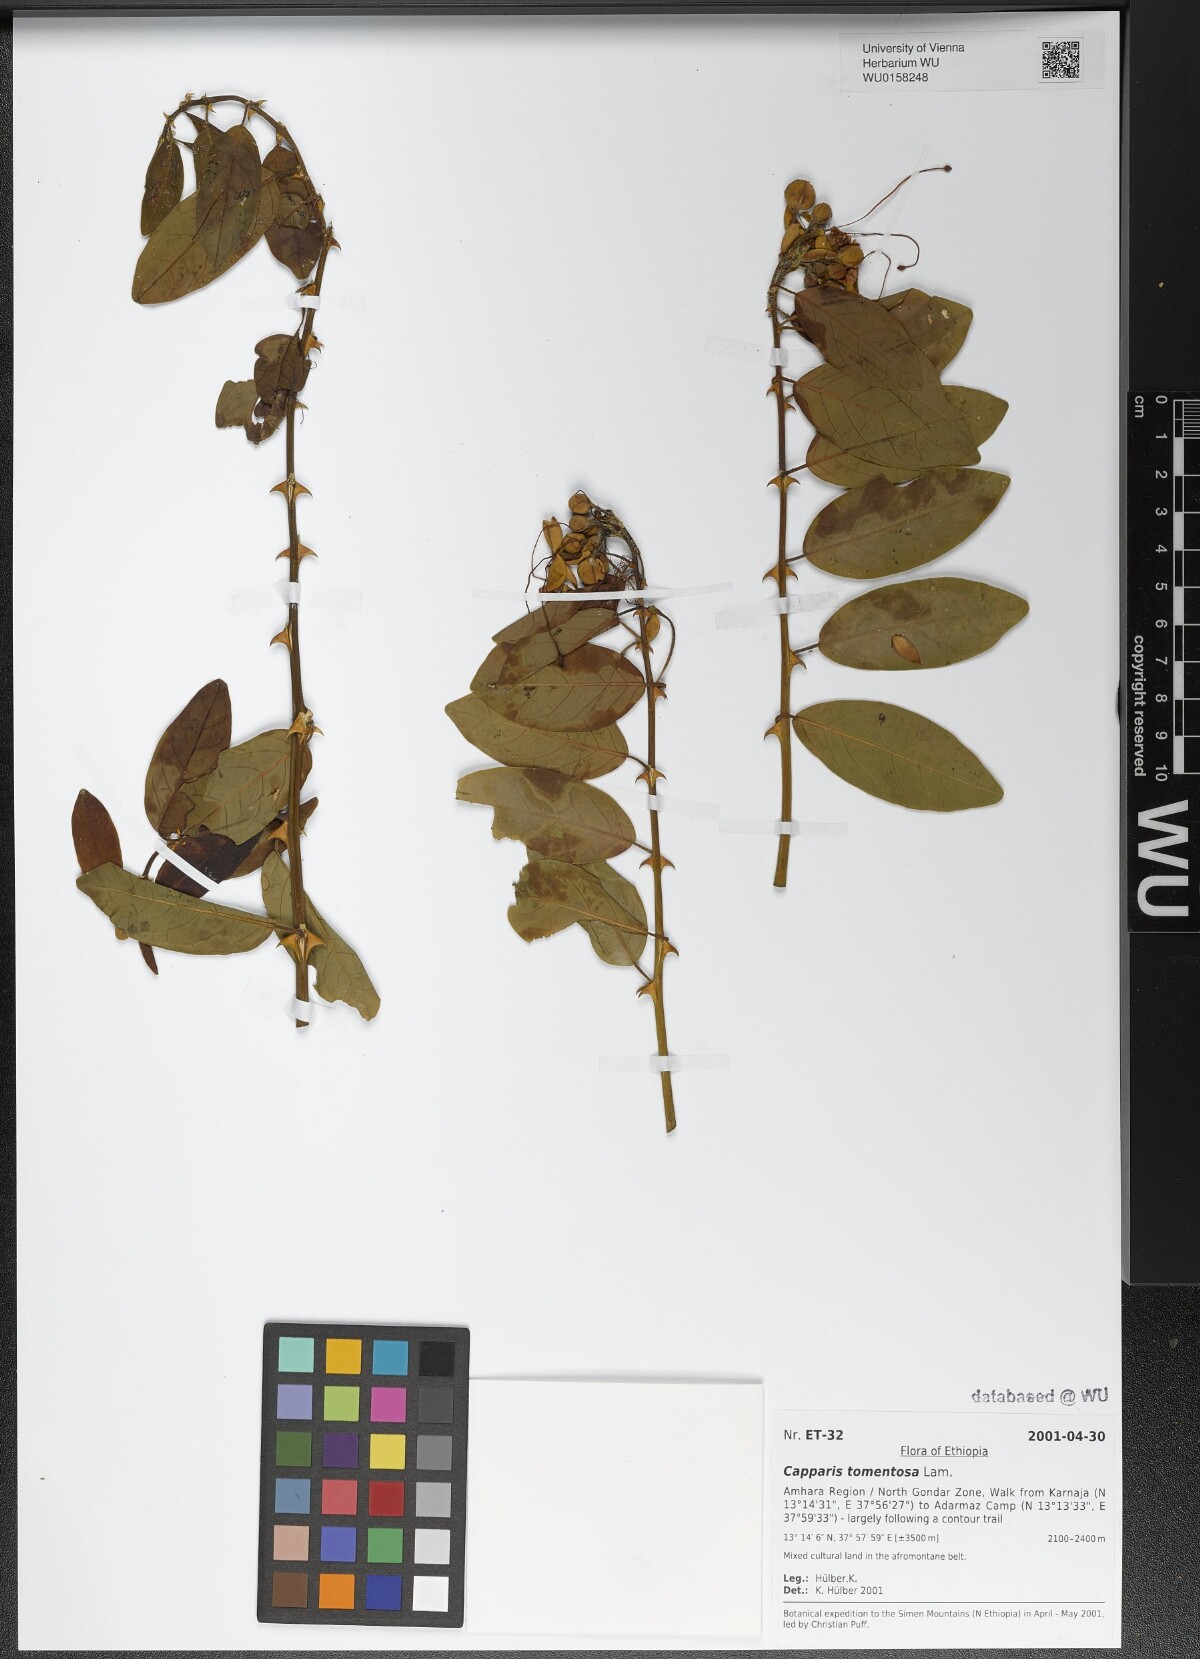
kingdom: Plantae
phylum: Tracheophyta
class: Magnoliopsida
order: Brassicales
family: Capparaceae
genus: Capparis
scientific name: Capparis tomentosa
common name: African caper
